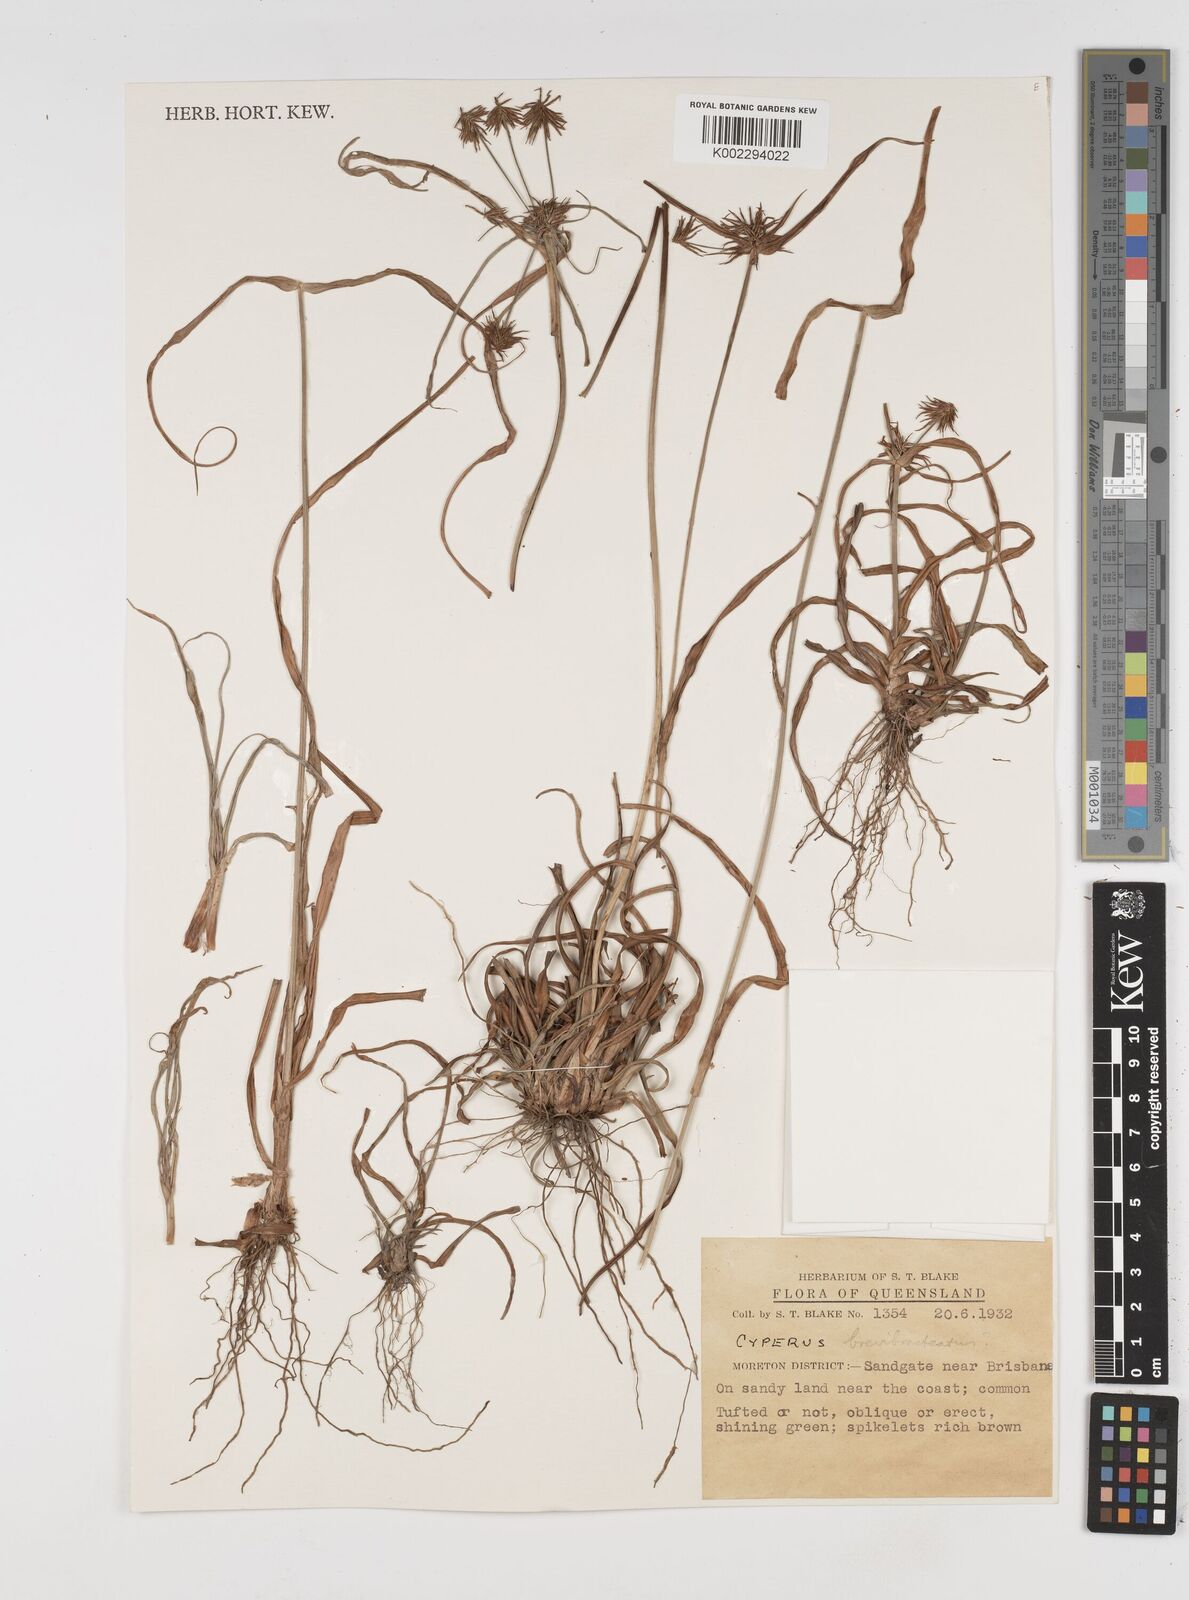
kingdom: Plantae
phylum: Tracheophyta
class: Liliopsida
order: Poales
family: Cyperaceae
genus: Cyperus
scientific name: Cyperus dietrichiae
